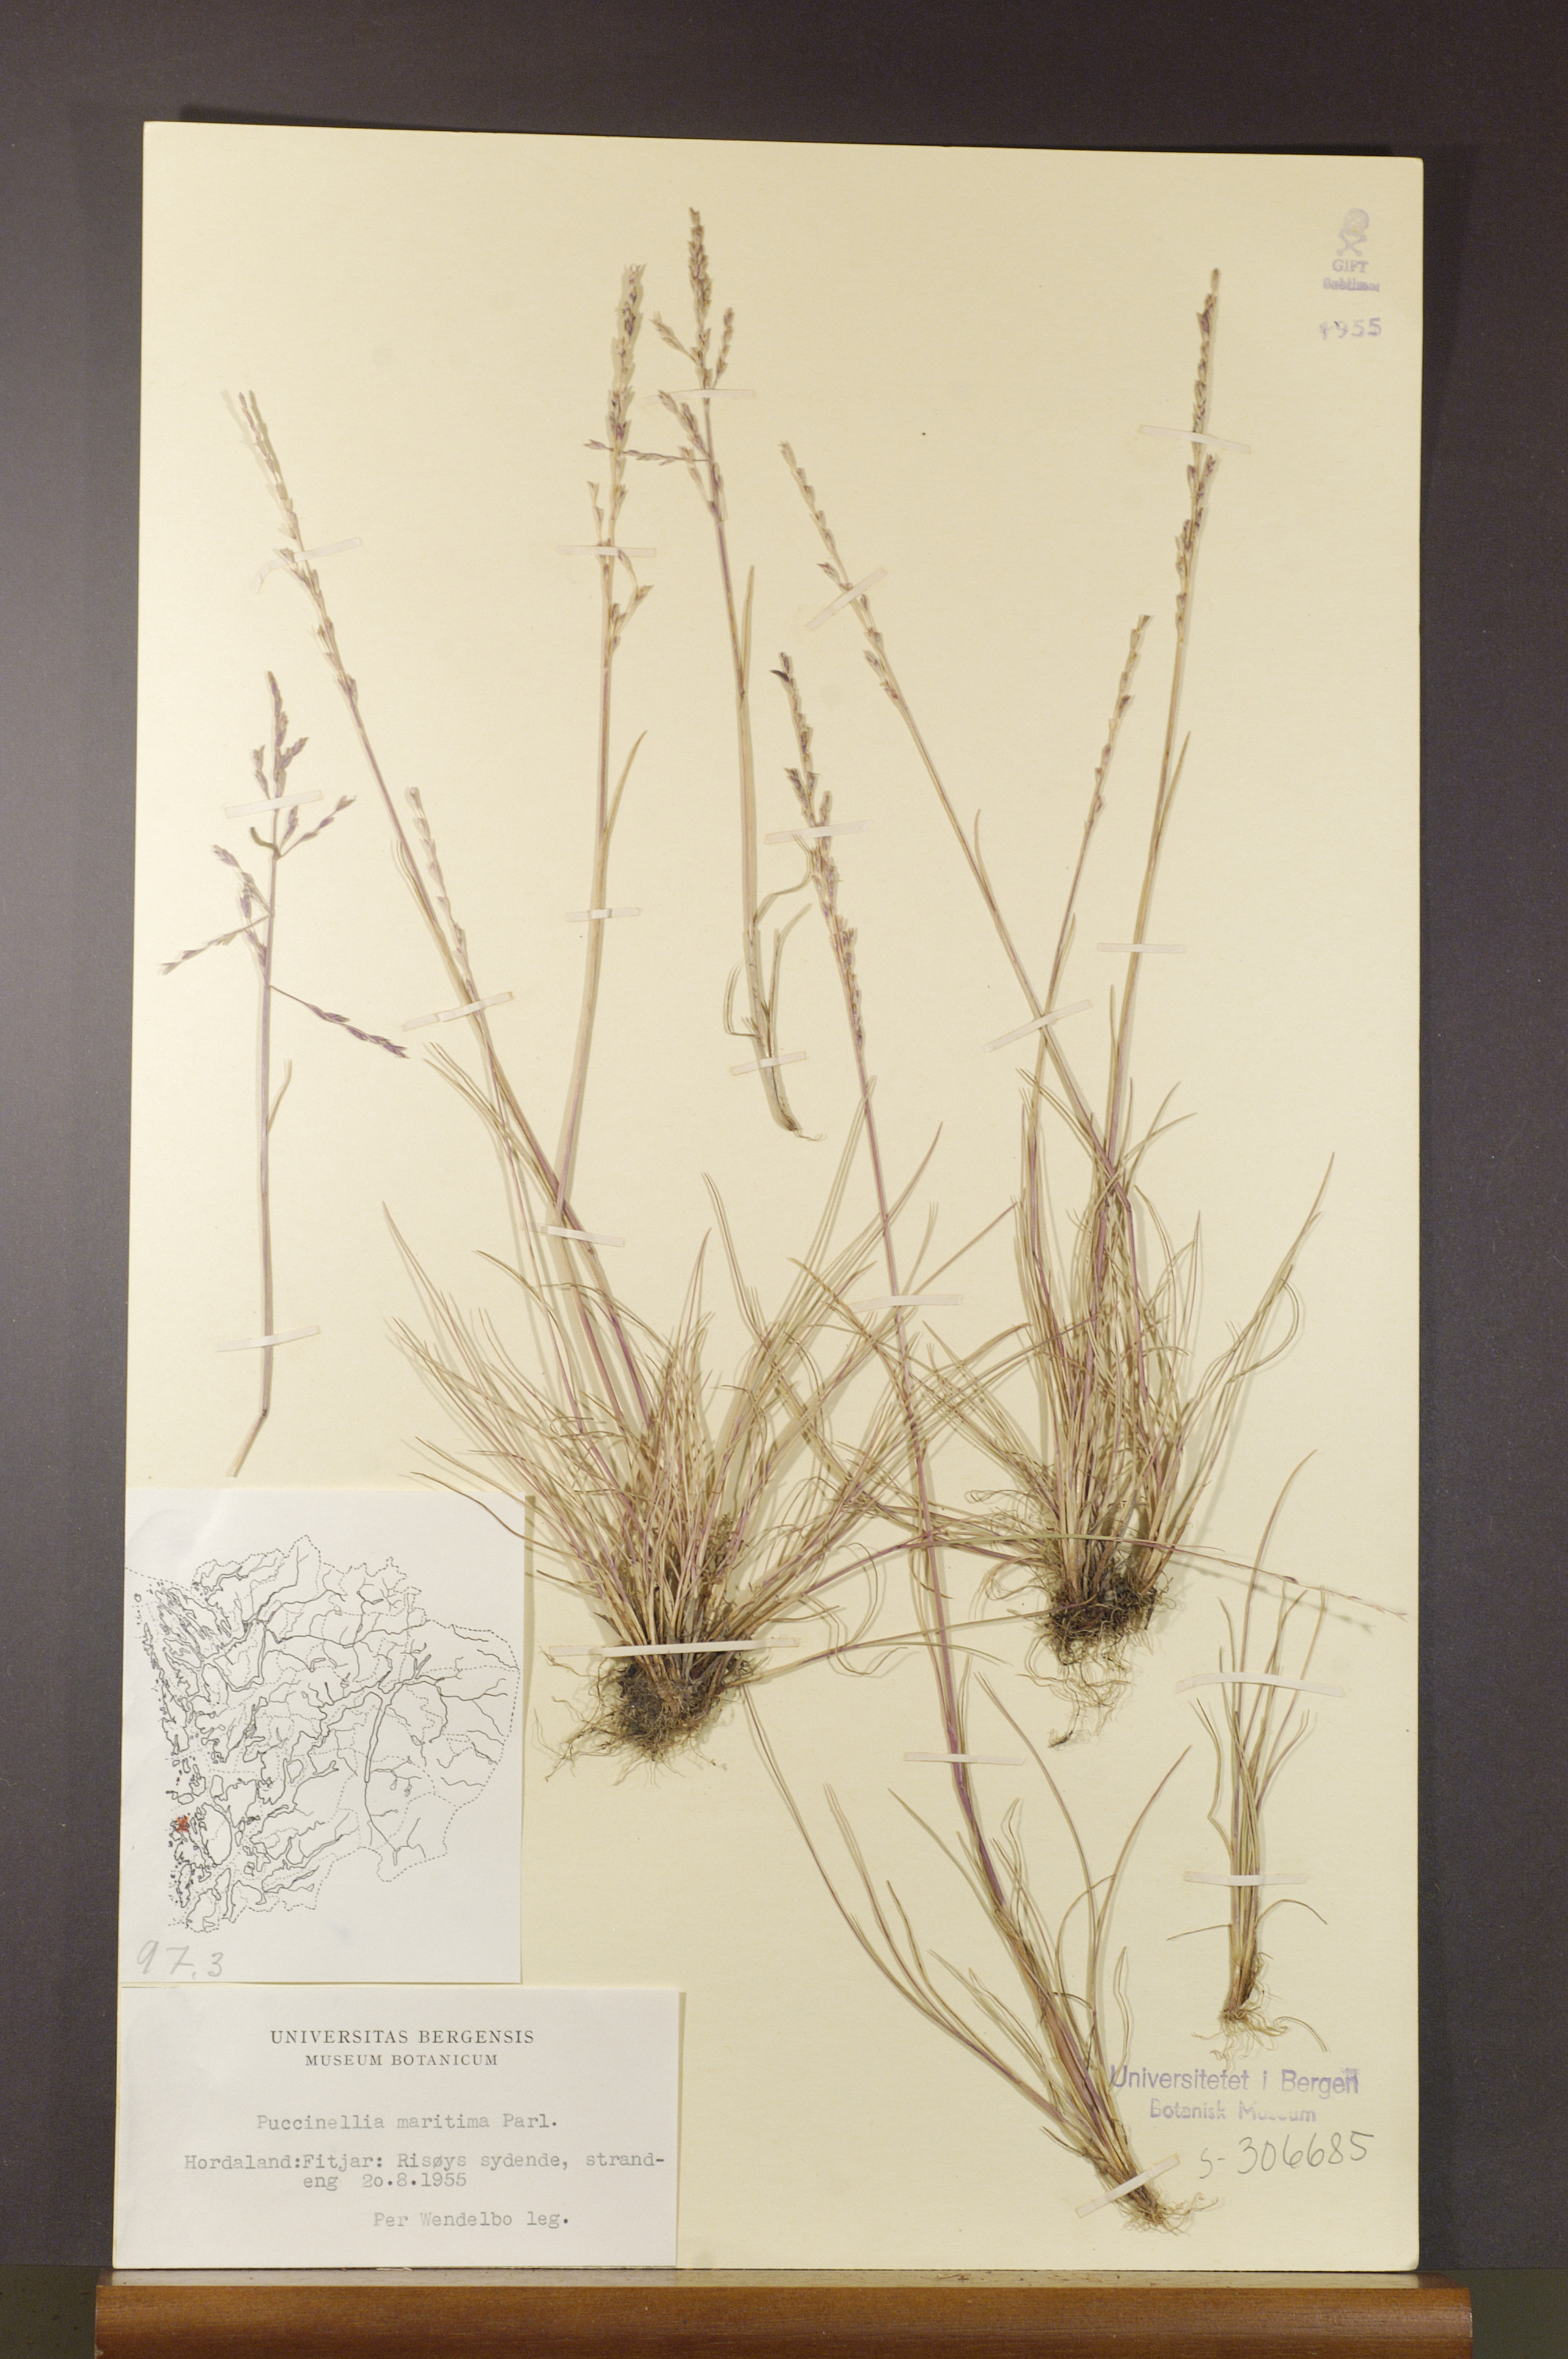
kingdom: Plantae
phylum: Tracheophyta
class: Liliopsida
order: Poales
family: Poaceae
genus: Puccinellia
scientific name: Puccinellia maritima
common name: Common saltmarsh grass
